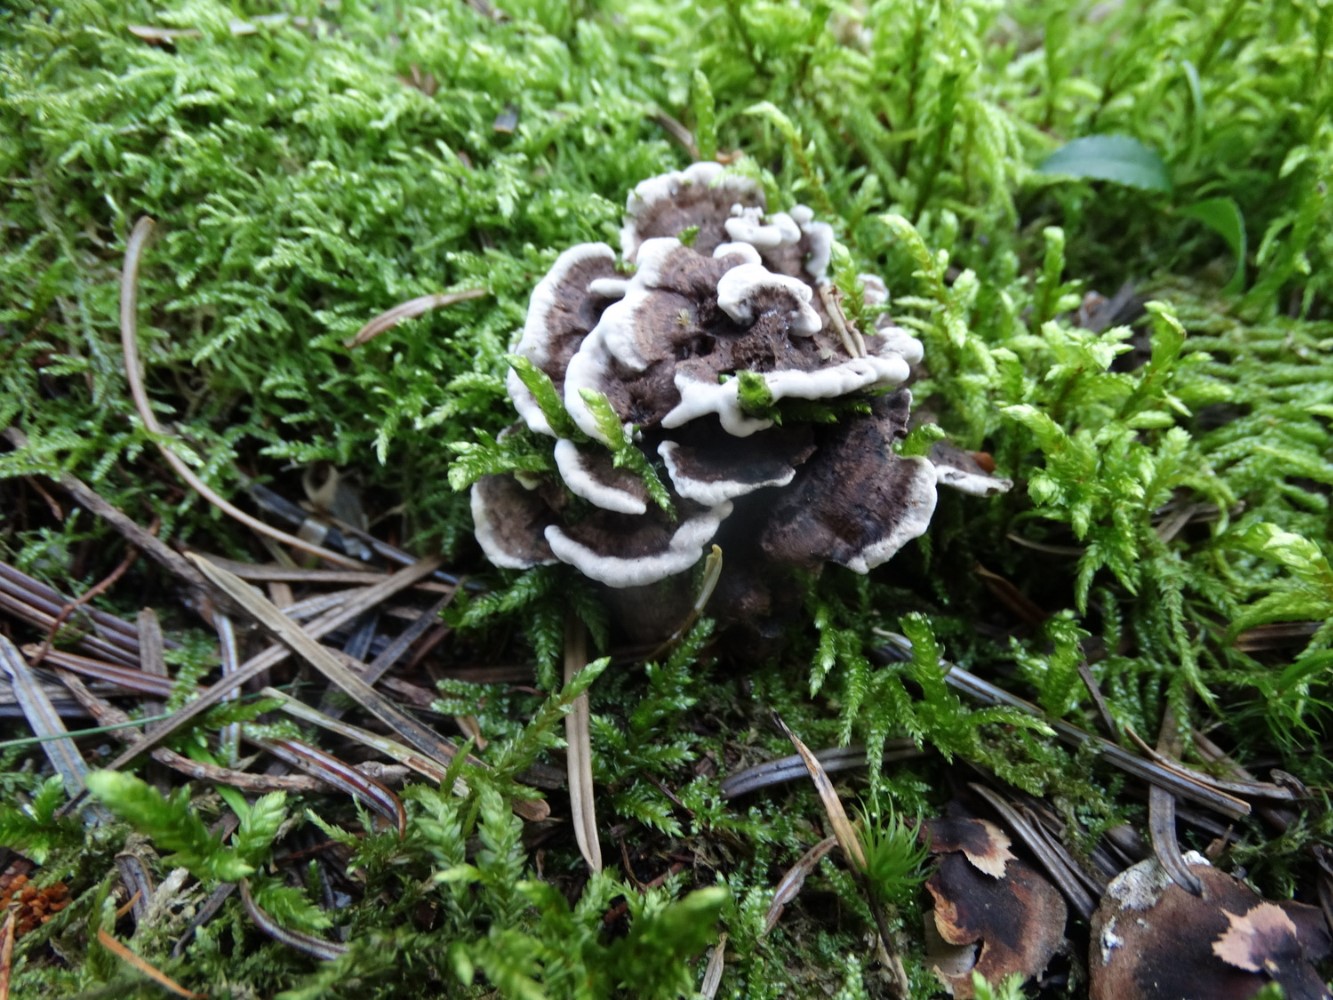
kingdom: Fungi
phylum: Basidiomycota
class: Agaricomycetes
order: Thelephorales
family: Thelephoraceae
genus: Phellodon
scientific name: Phellodon tomentosus
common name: vellugtende duftpigsvamp
